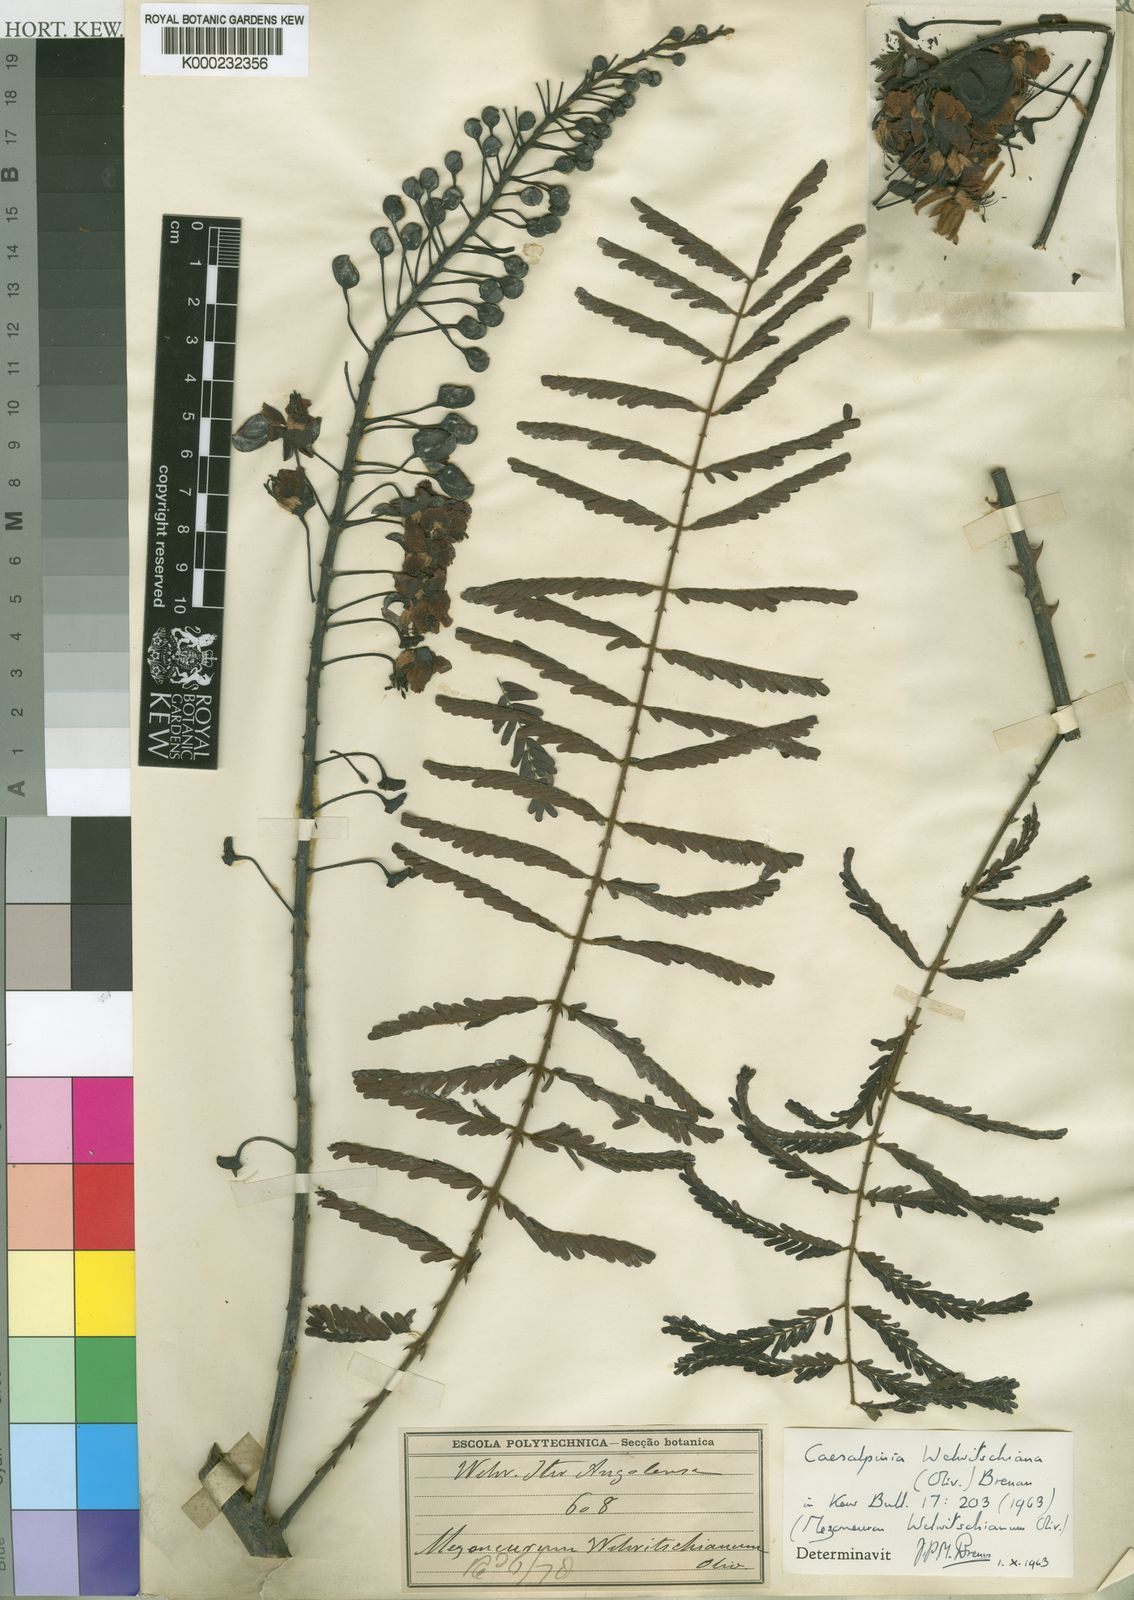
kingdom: Plantae
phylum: Tracheophyta
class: Magnoliopsida
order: Fabales
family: Fabaceae
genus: Moullava
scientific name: Moullava welwitschiana
